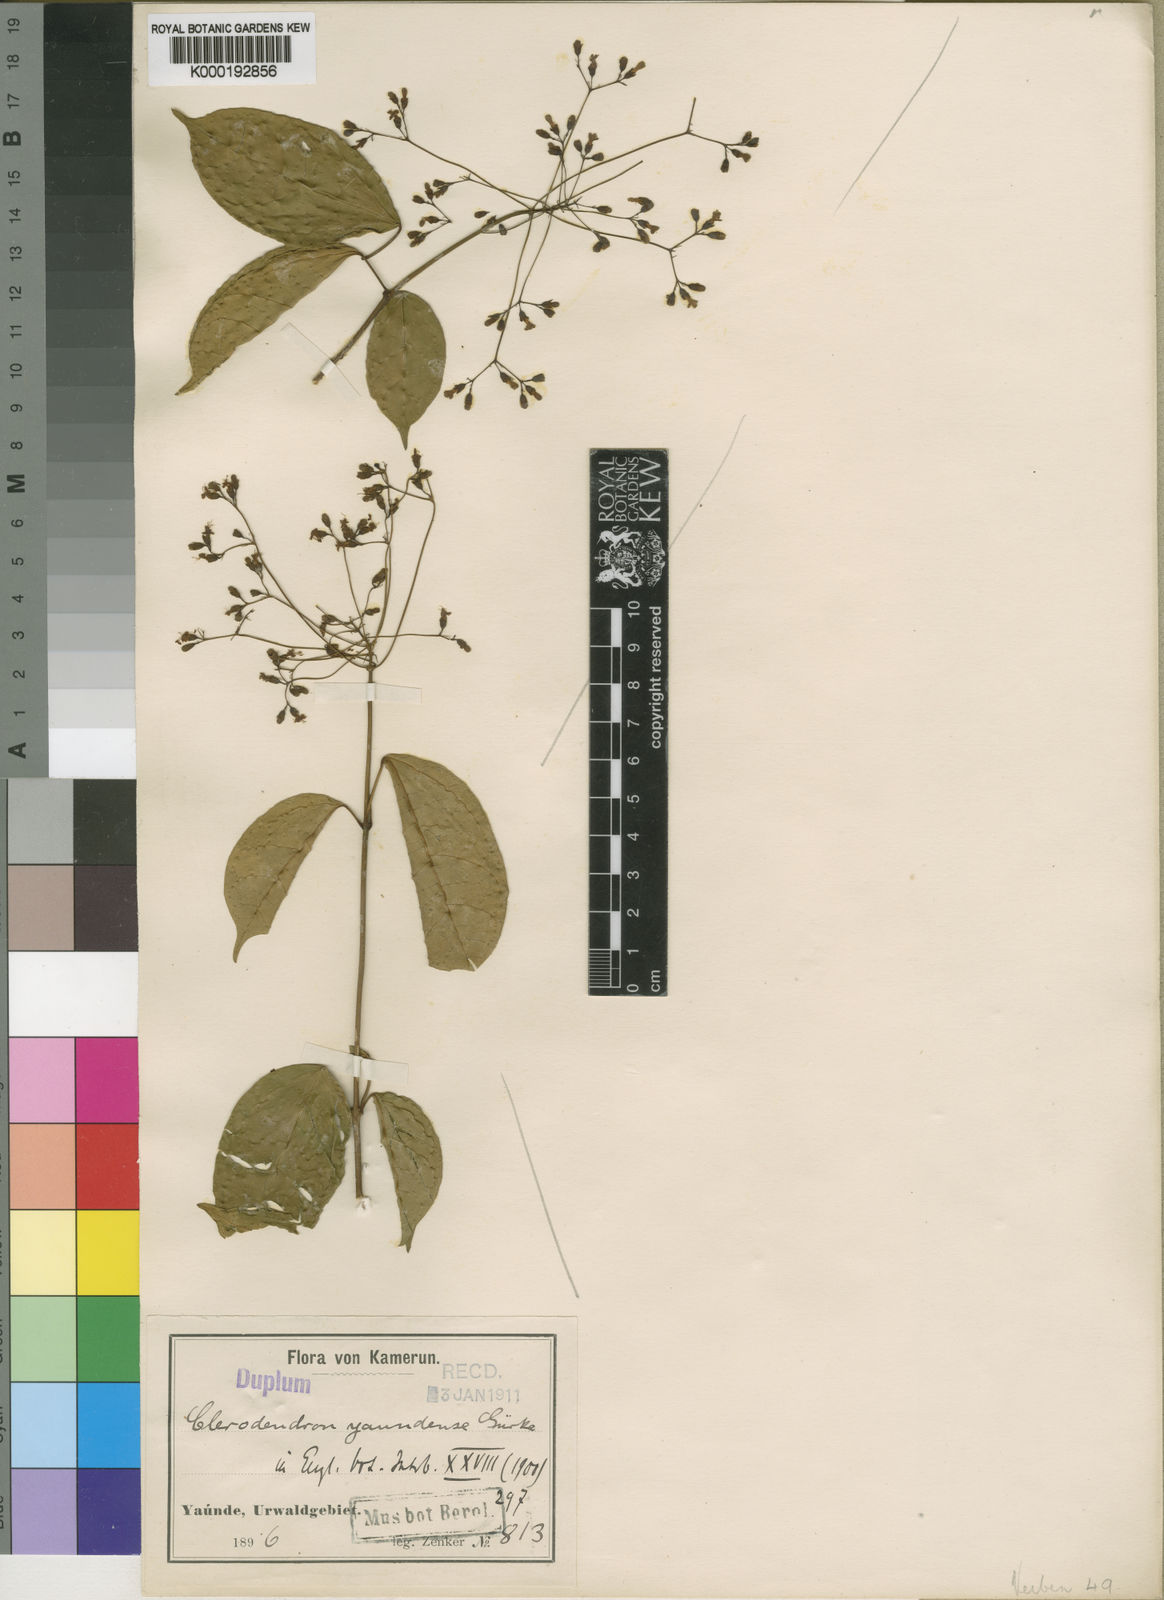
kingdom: Plantae
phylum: Tracheophyta
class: Magnoliopsida
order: Lamiales
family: Lamiaceae
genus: Clerodendrum
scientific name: Clerodendrum
